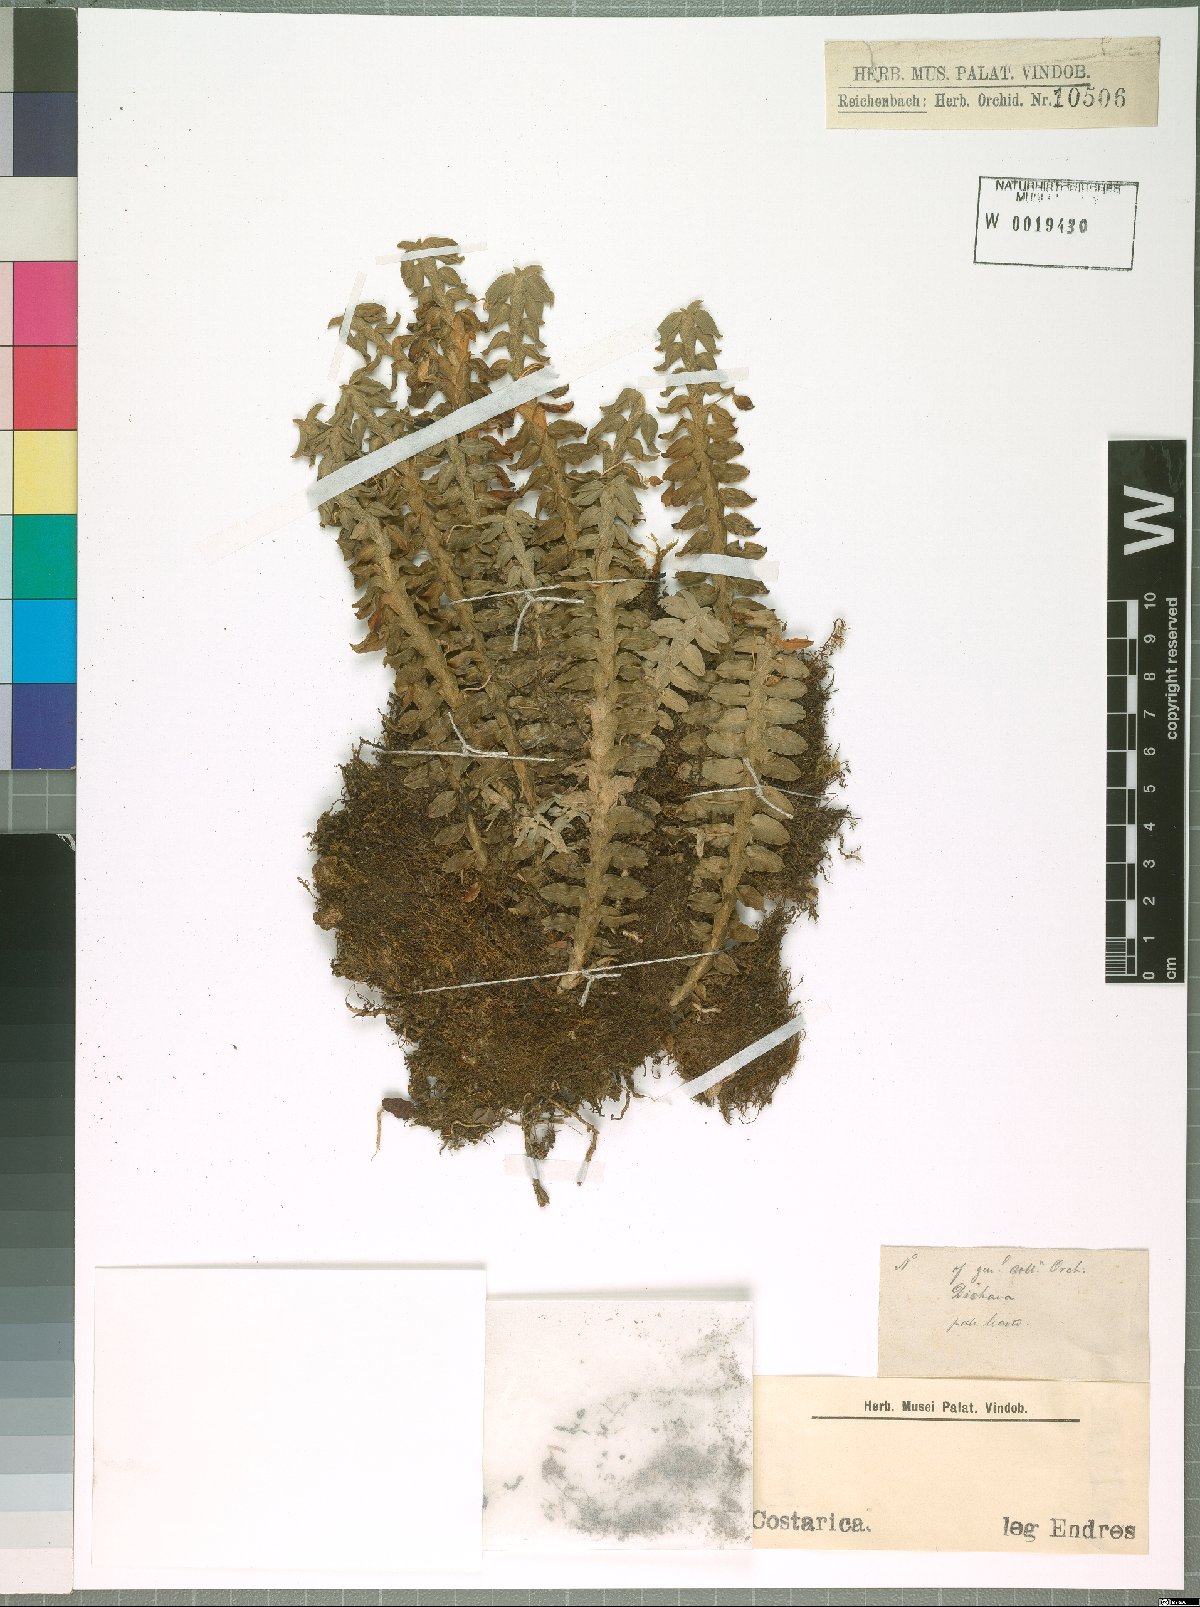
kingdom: Plantae
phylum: Tracheophyta
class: Liliopsida
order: Asparagales
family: Orchidaceae
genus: Dichaea
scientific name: Dichaea
